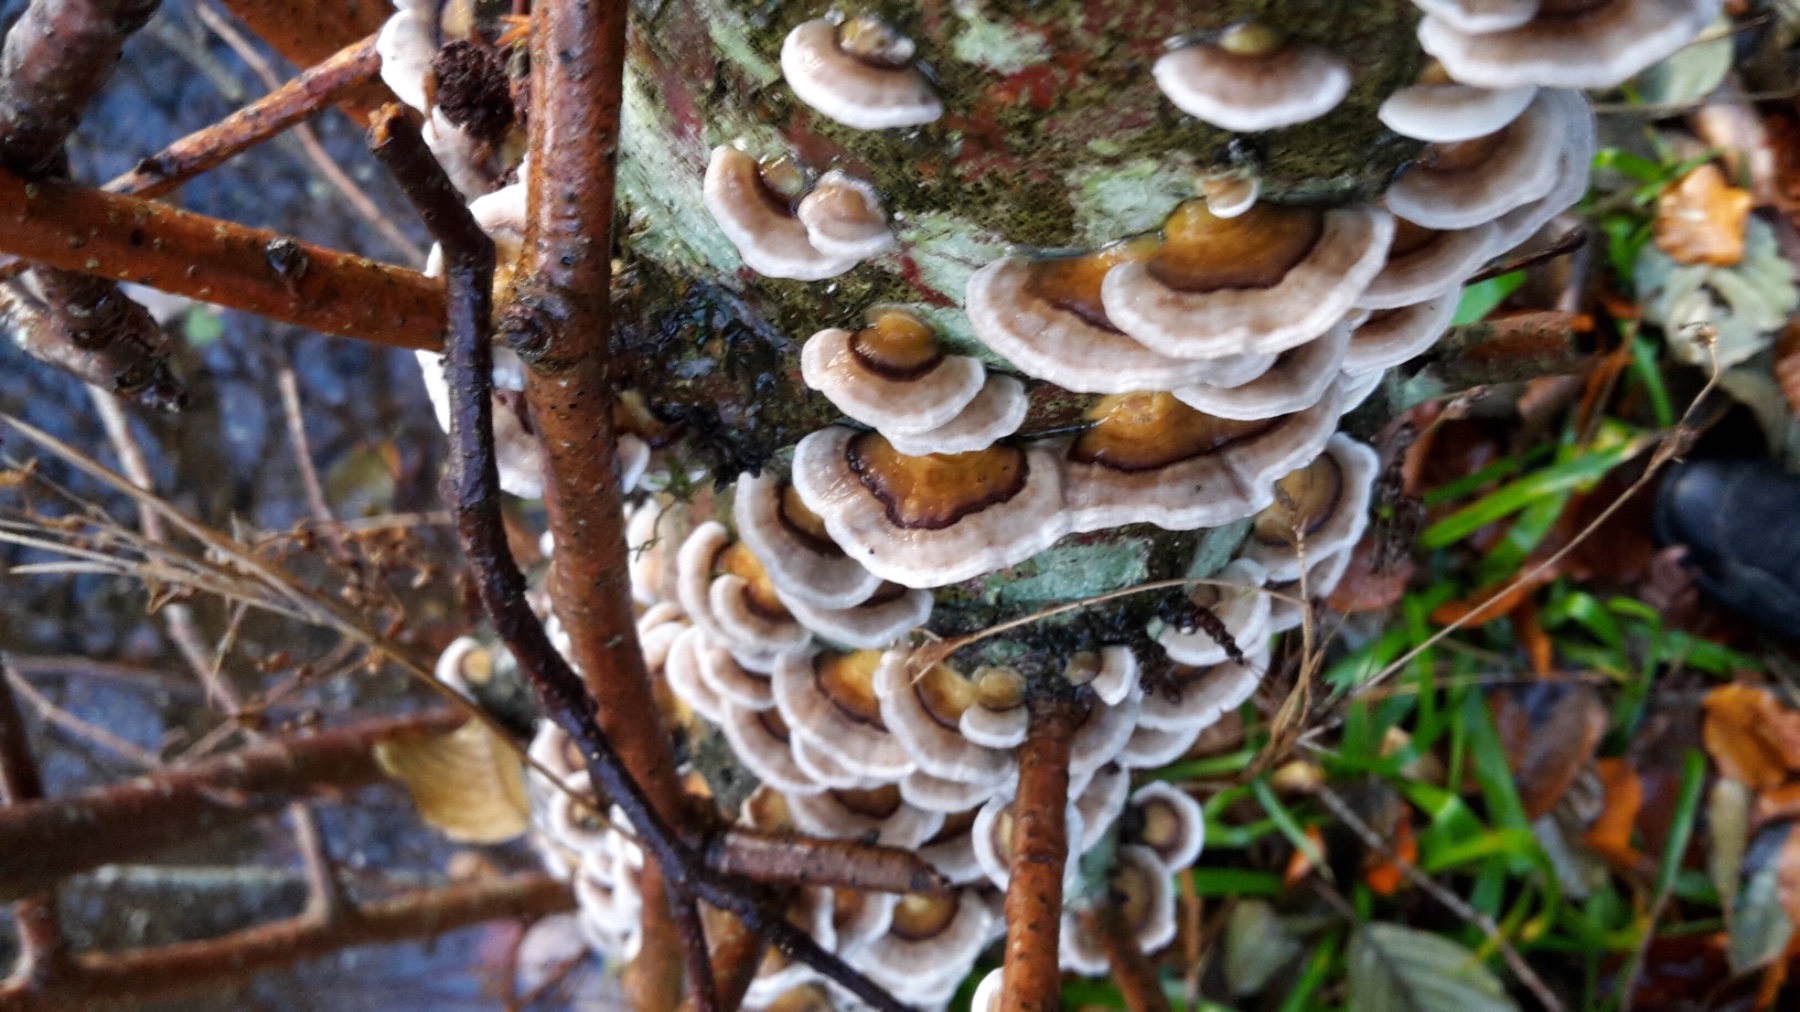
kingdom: Fungi
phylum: Basidiomycota
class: Agaricomycetes
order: Polyporales
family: Polyporaceae
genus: Trametes
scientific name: Trametes versicolor
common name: broget læderporesvamp
